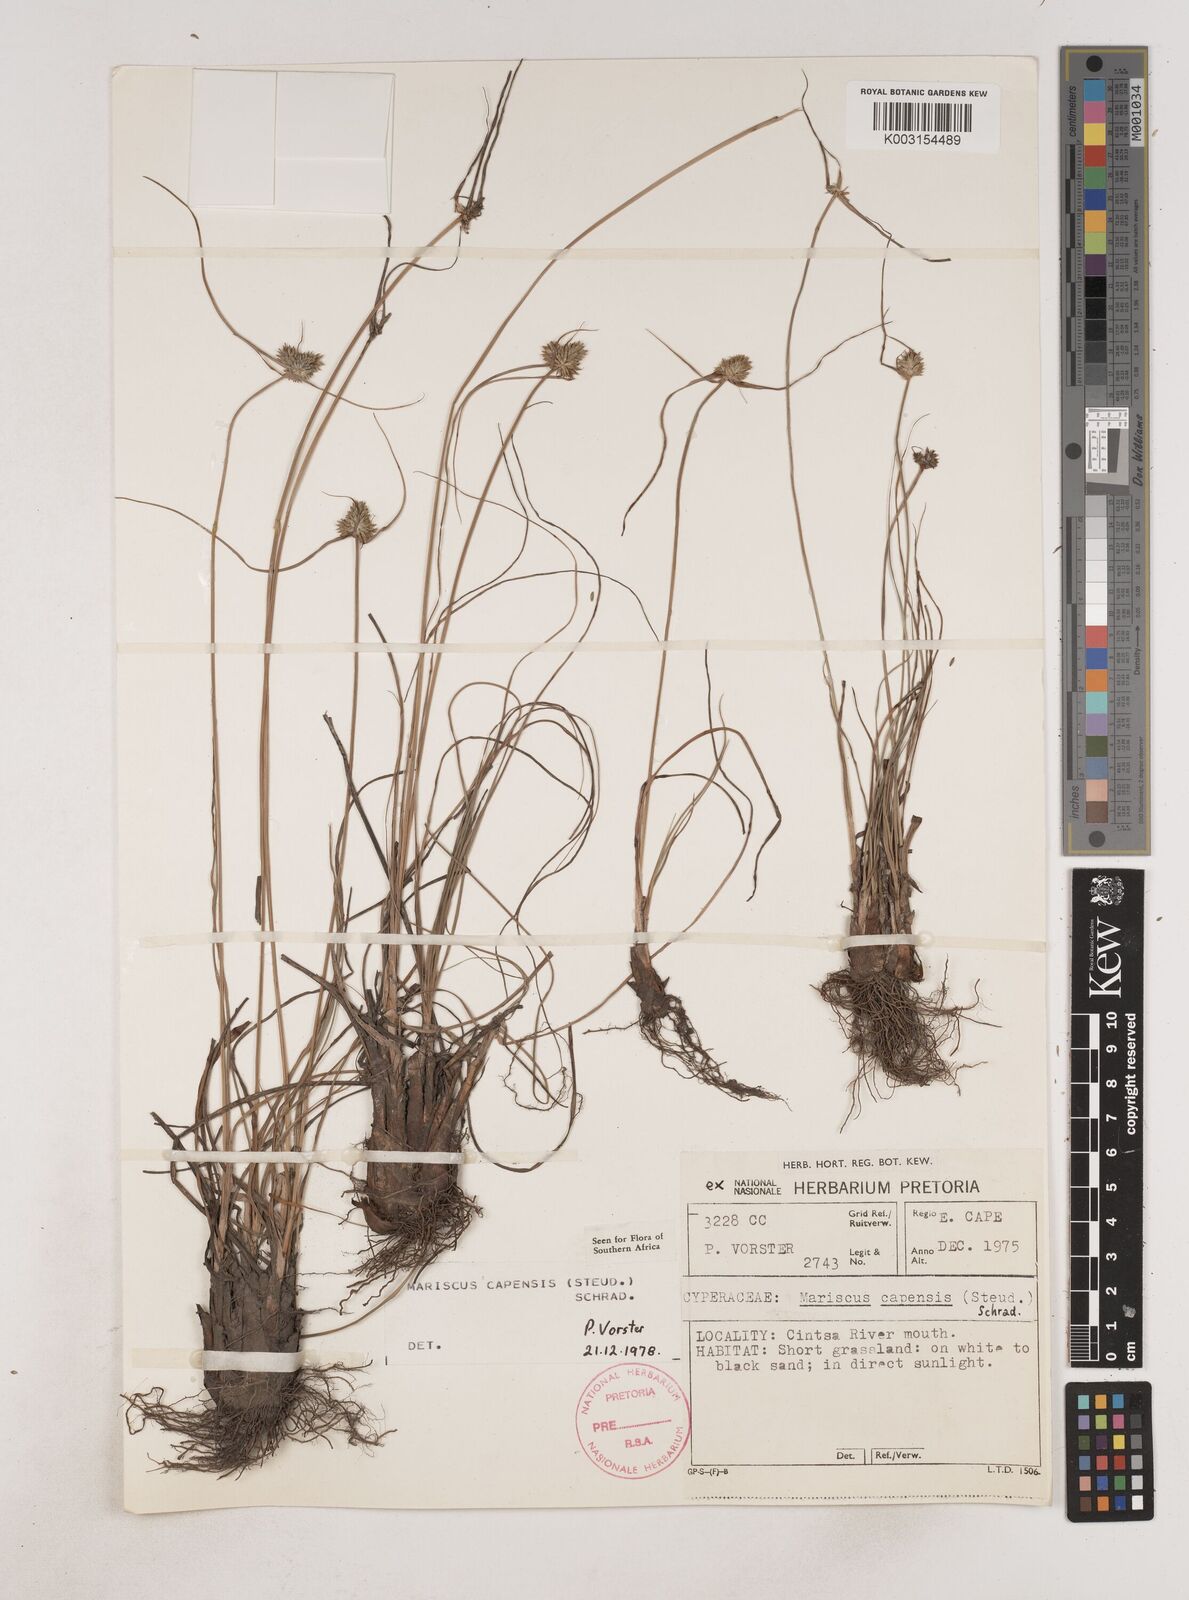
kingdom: Plantae
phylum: Tracheophyta
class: Liliopsida
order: Poales
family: Cyperaceae
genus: Cyperus
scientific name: Cyperus capensis
